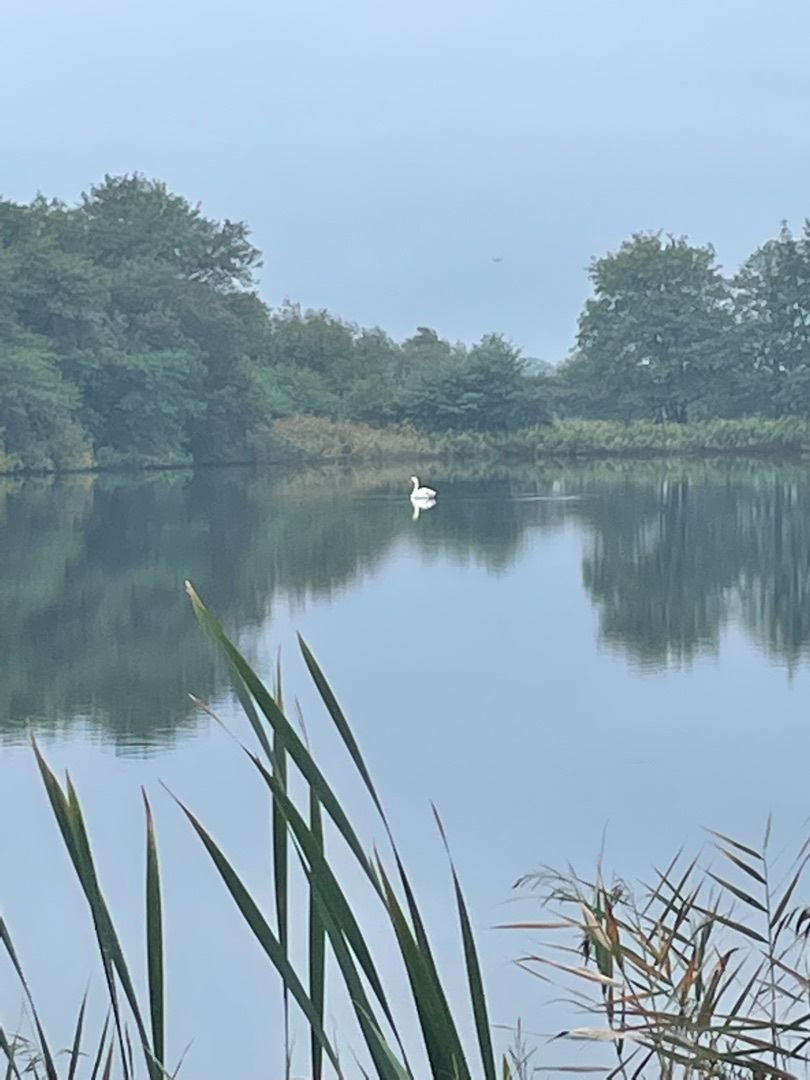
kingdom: Animalia
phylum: Chordata
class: Aves
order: Anseriformes
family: Anatidae
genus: Cygnus
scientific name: Cygnus olor
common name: Knopsvane
